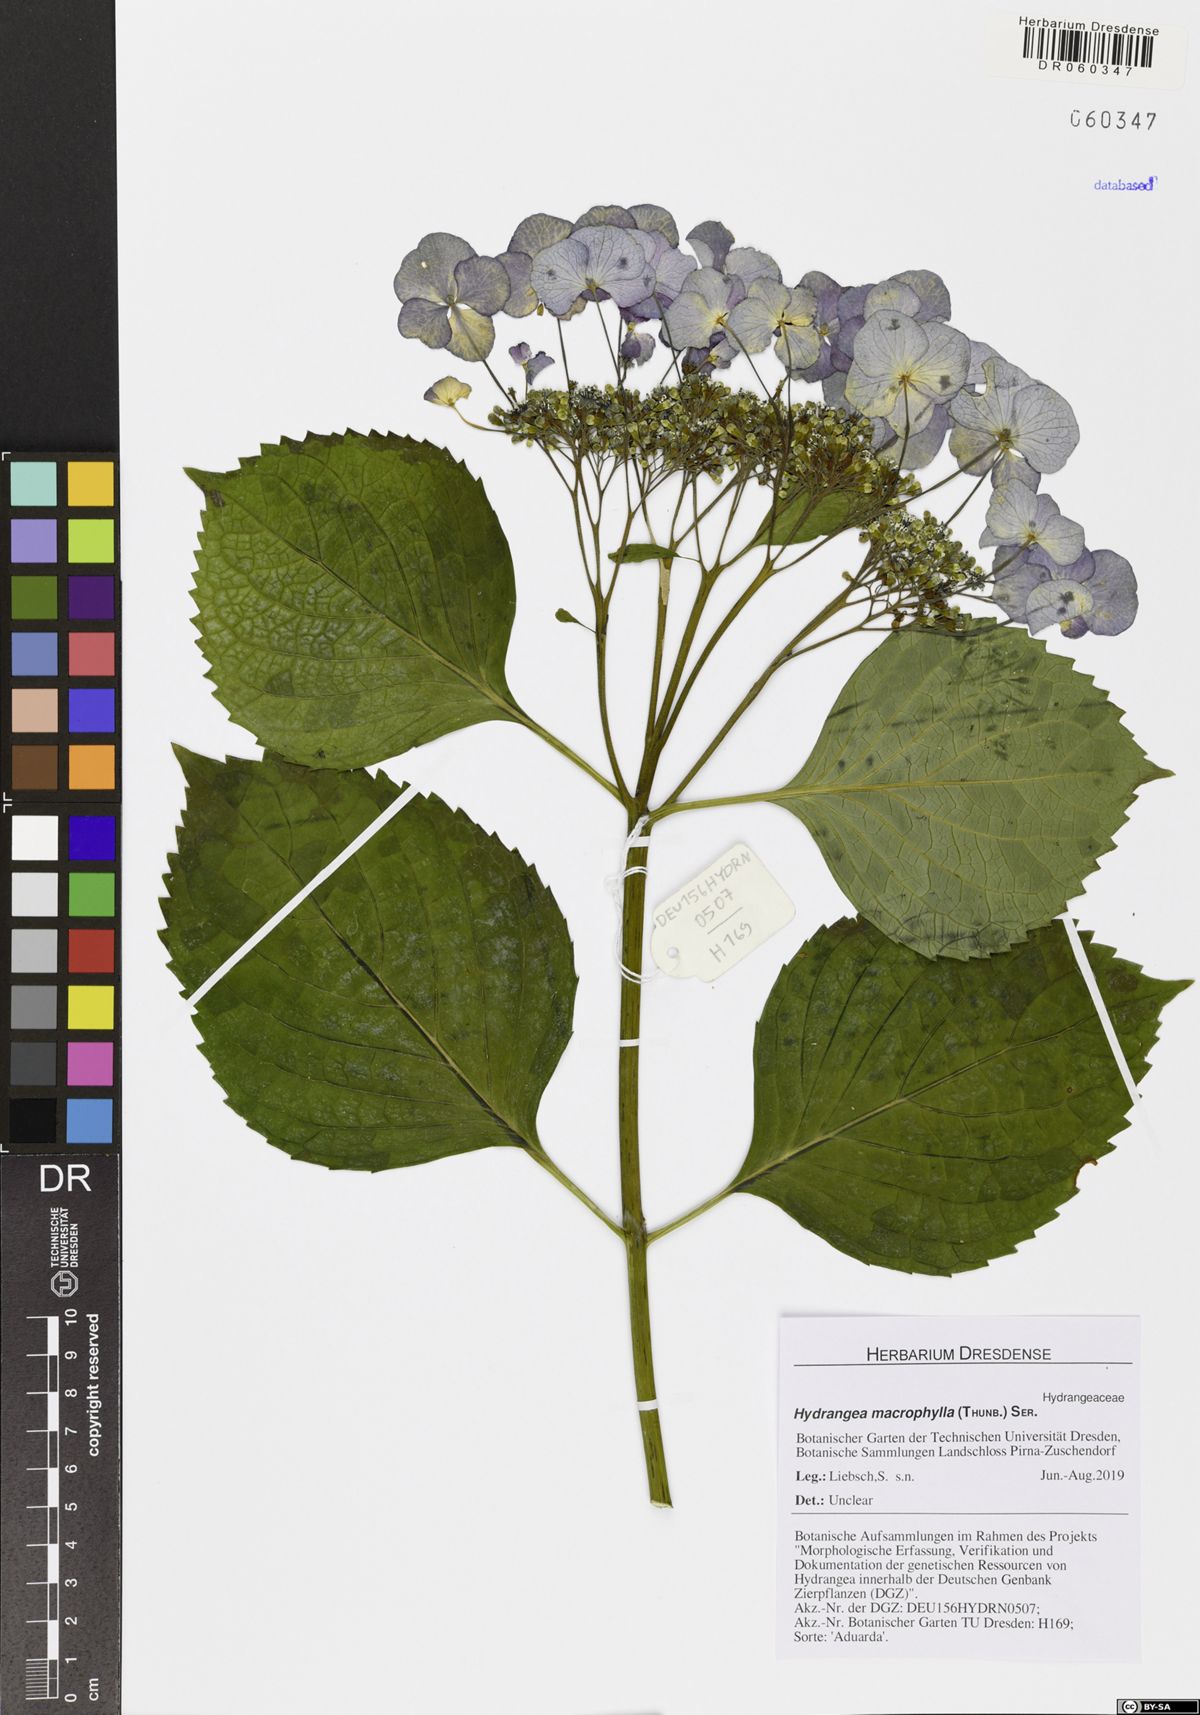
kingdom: Plantae
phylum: Tracheophyta
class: Magnoliopsida
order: Cornales
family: Hydrangeaceae
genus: Hydrangea
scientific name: Hydrangea macrophylla
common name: Hydrangea
